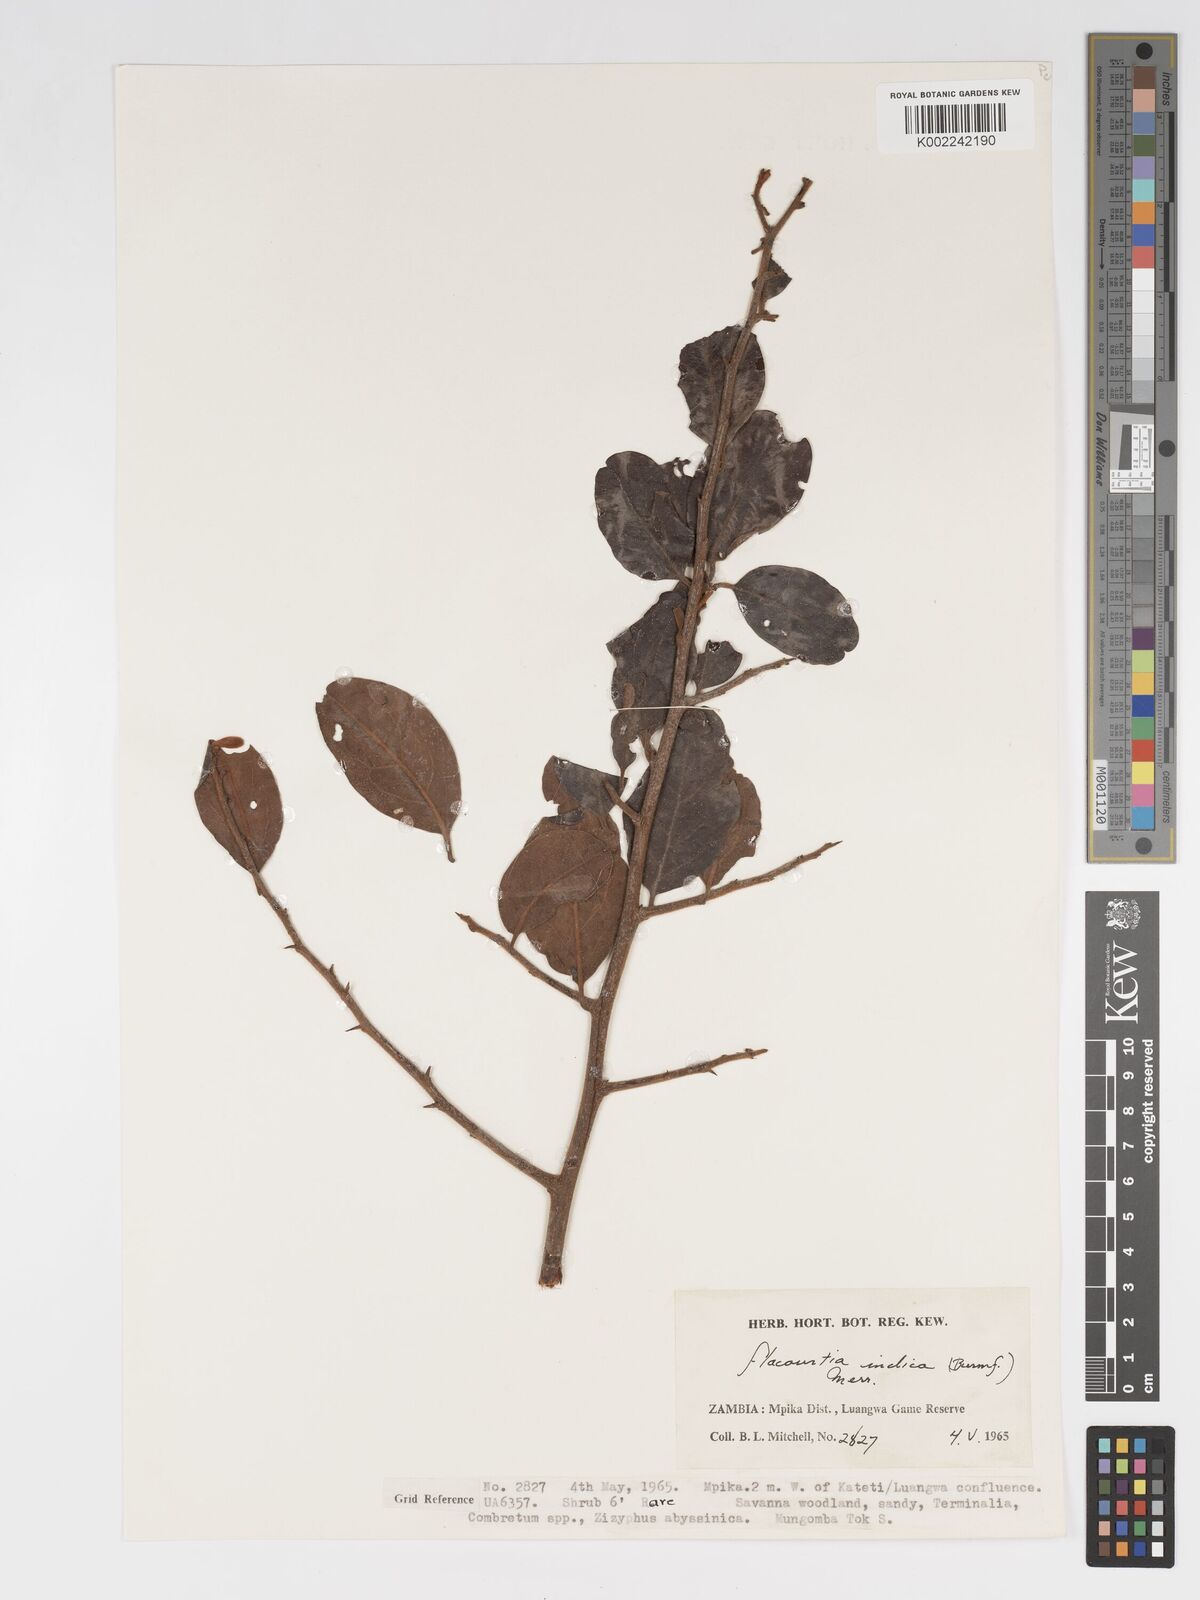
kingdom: Plantae
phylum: Tracheophyta
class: Magnoliopsida
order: Malpighiales
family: Salicaceae
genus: Flacourtia
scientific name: Flacourtia
